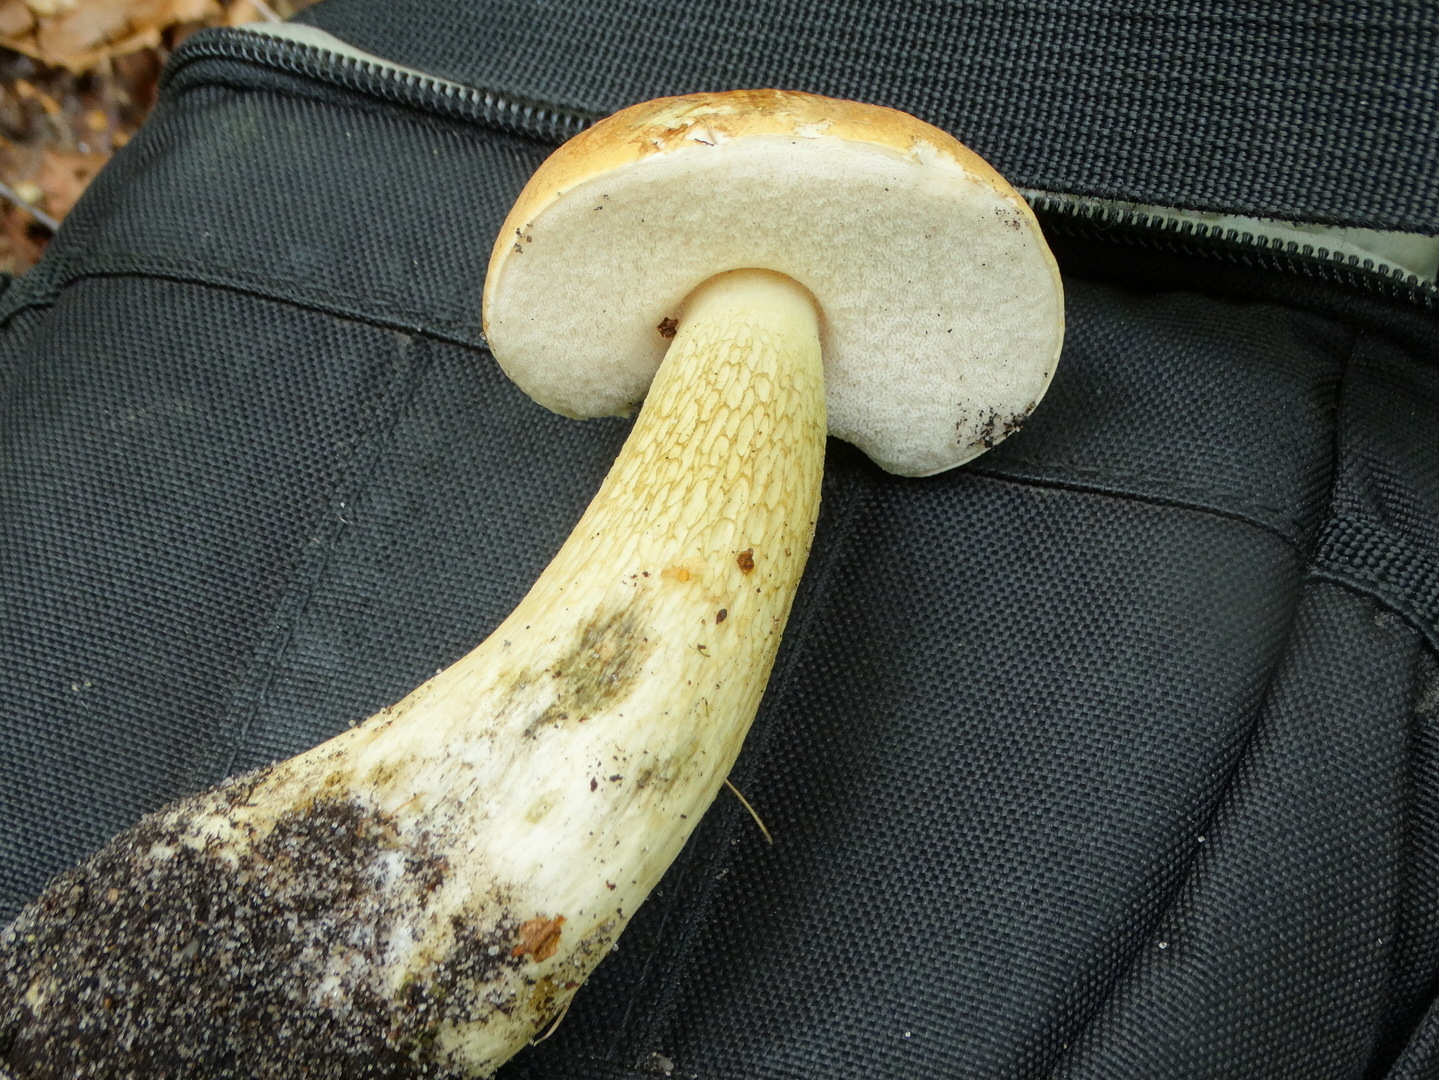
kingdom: Fungi
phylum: Basidiomycota
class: Agaricomycetes
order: Boletales
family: Boletaceae
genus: Tylopilus
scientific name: Tylopilus felleus
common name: galderørhat
